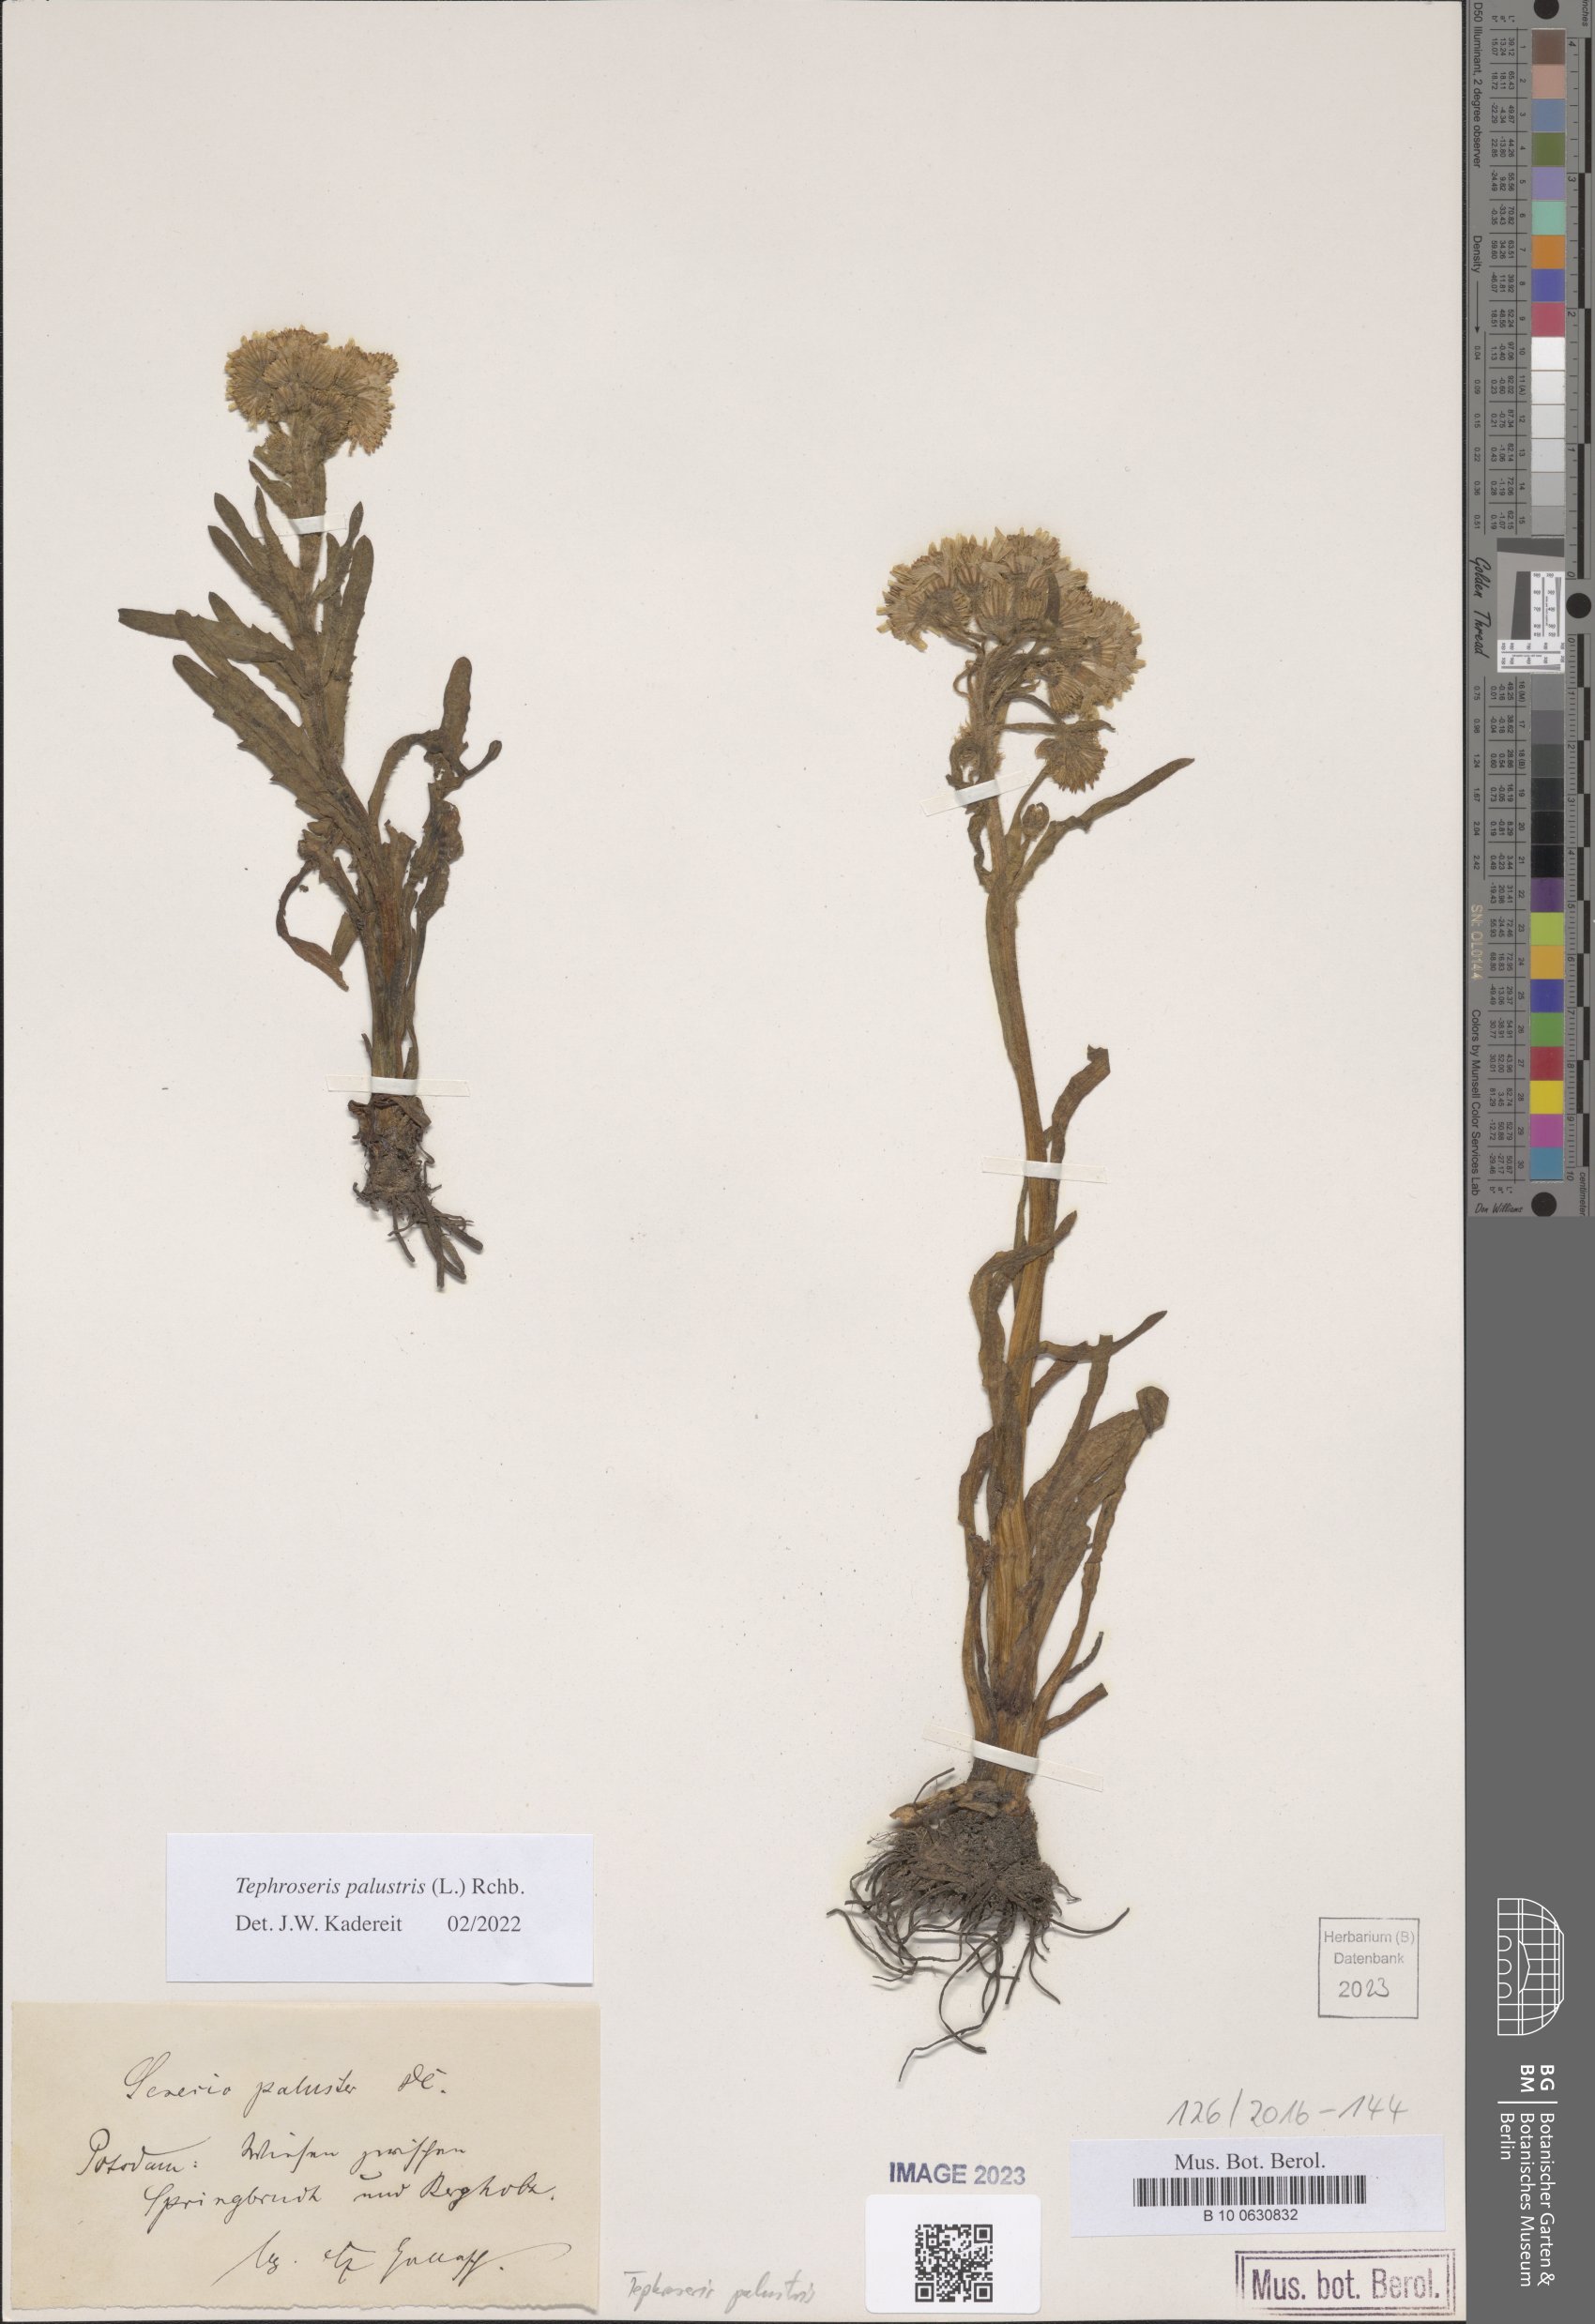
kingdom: Plantae
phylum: Tracheophyta
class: Magnoliopsida
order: Asterales
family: Asteraceae
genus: Tephroseris
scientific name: Tephroseris palustris
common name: Marsh fleawort
